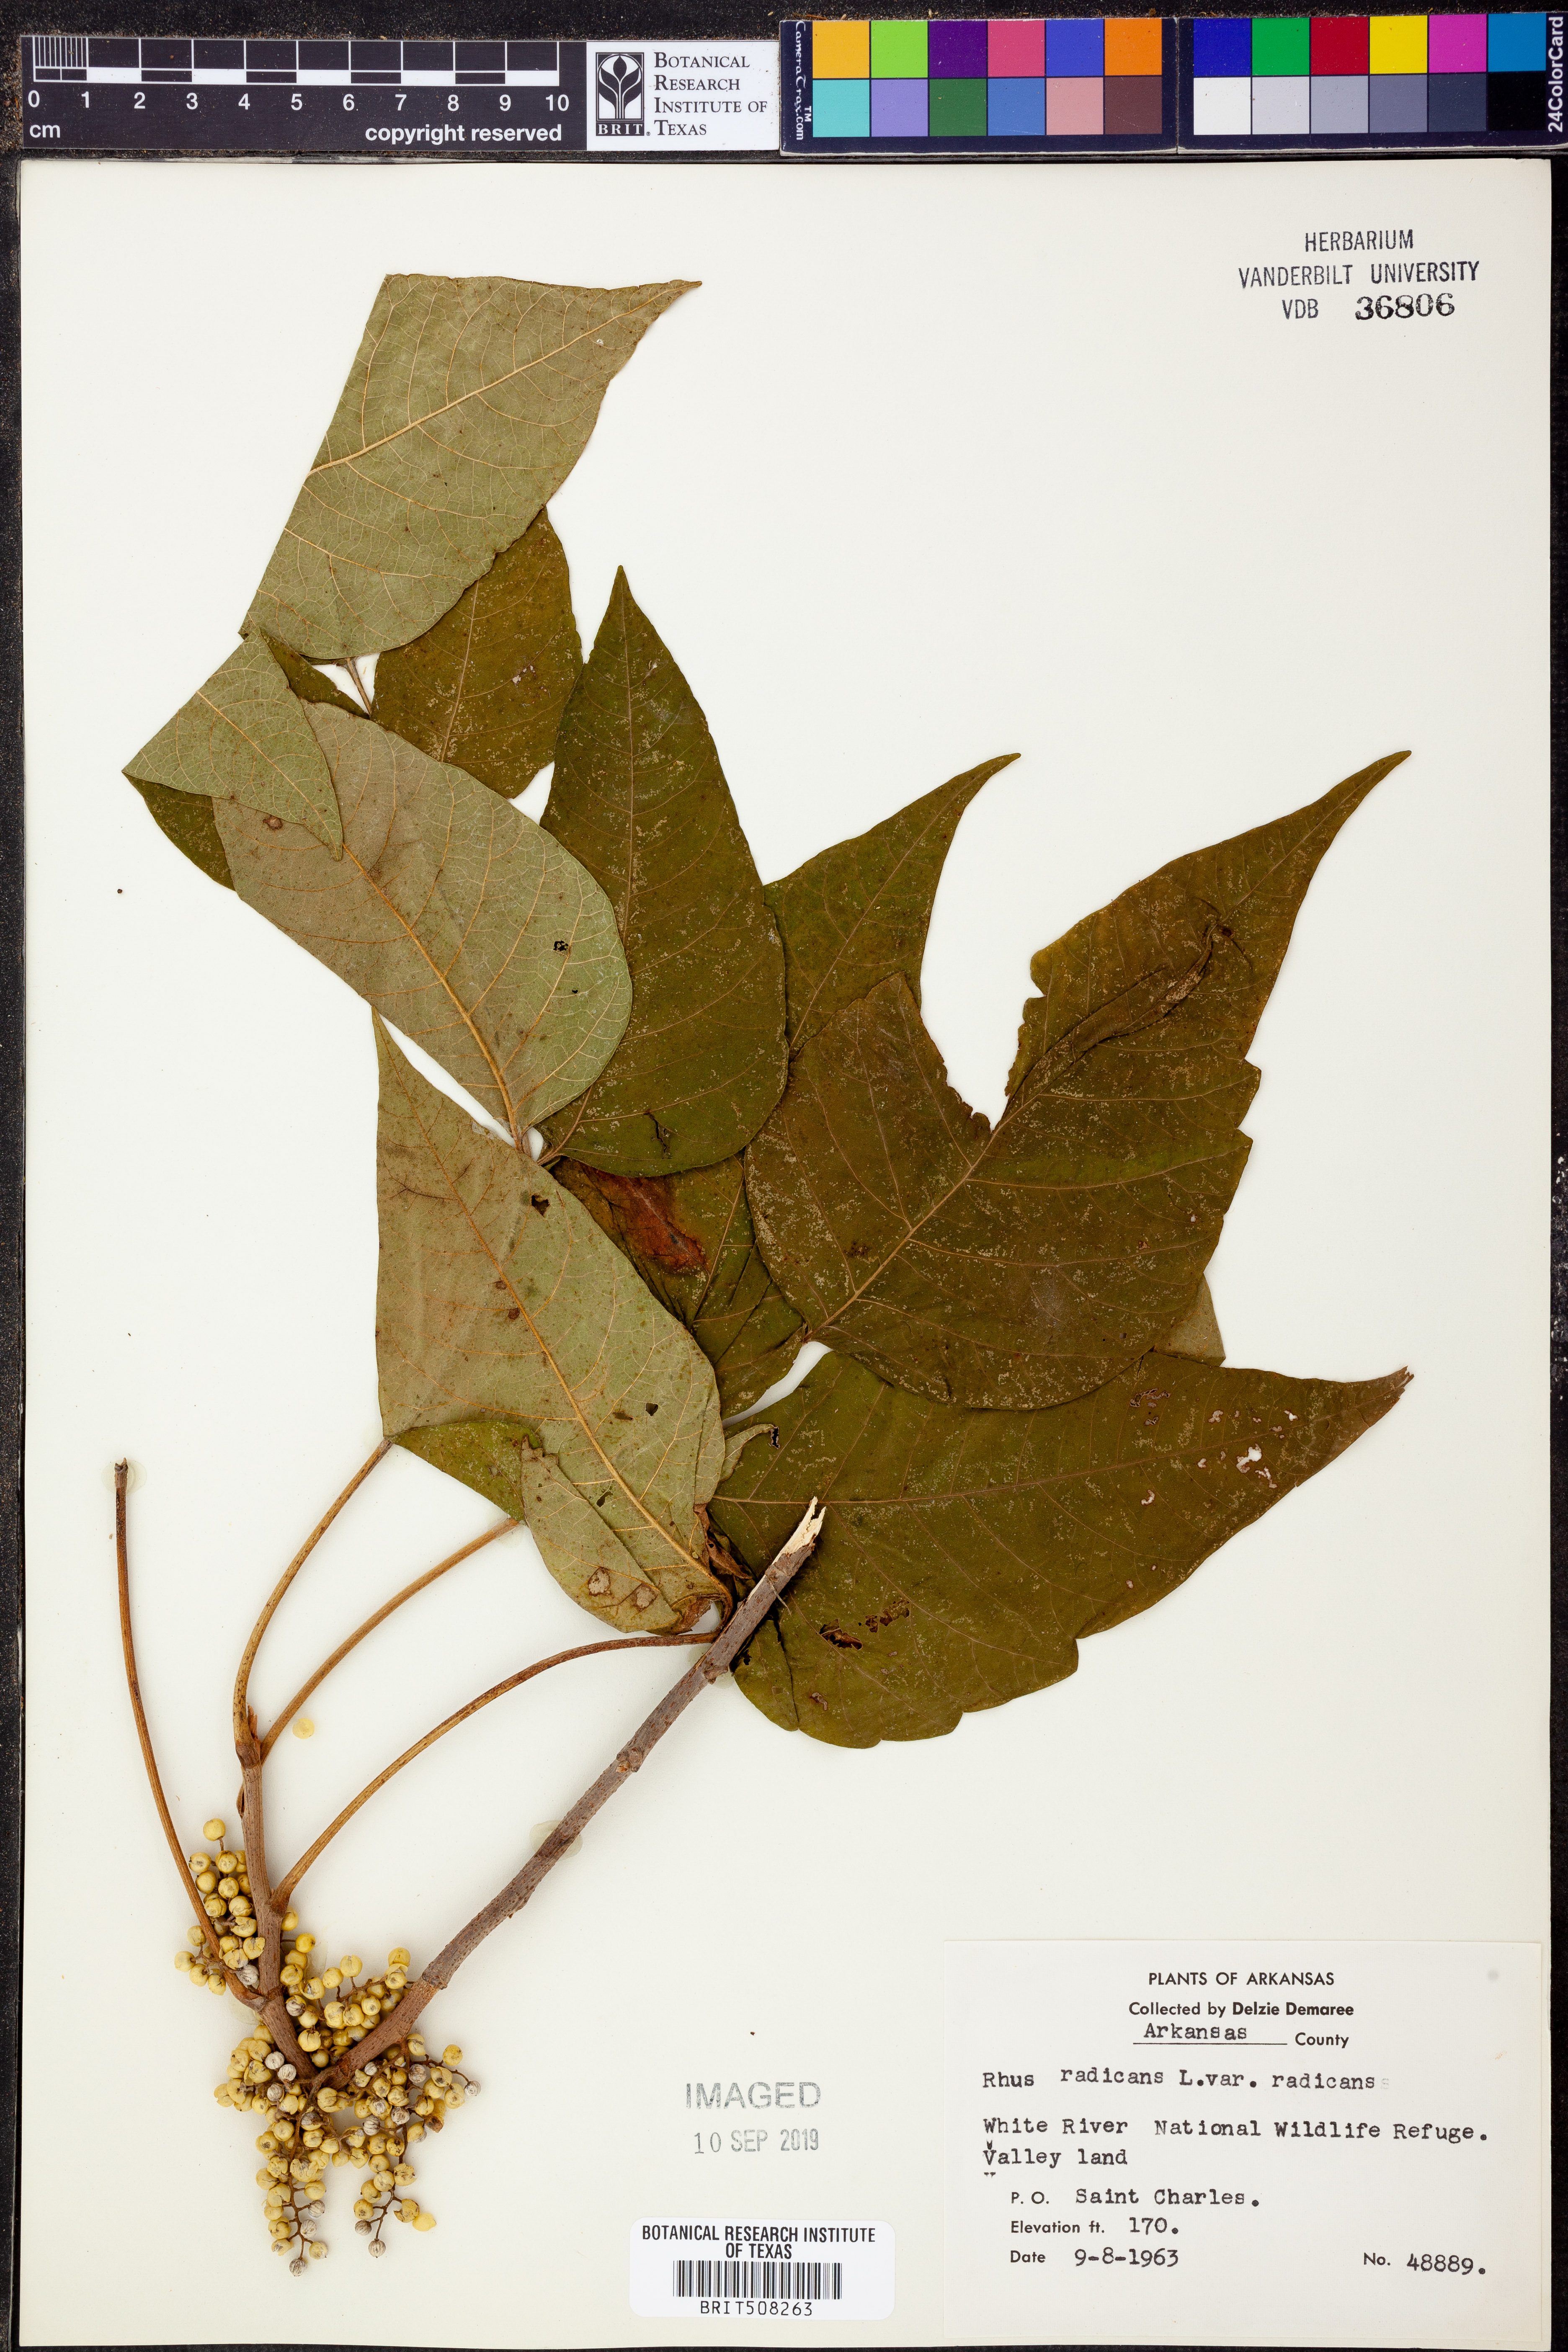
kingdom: Plantae
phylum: Tracheophyta
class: Magnoliopsida
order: Sapindales
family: Anacardiaceae
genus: Toxicodendron
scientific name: Toxicodendron radicans
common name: Poison ivy
